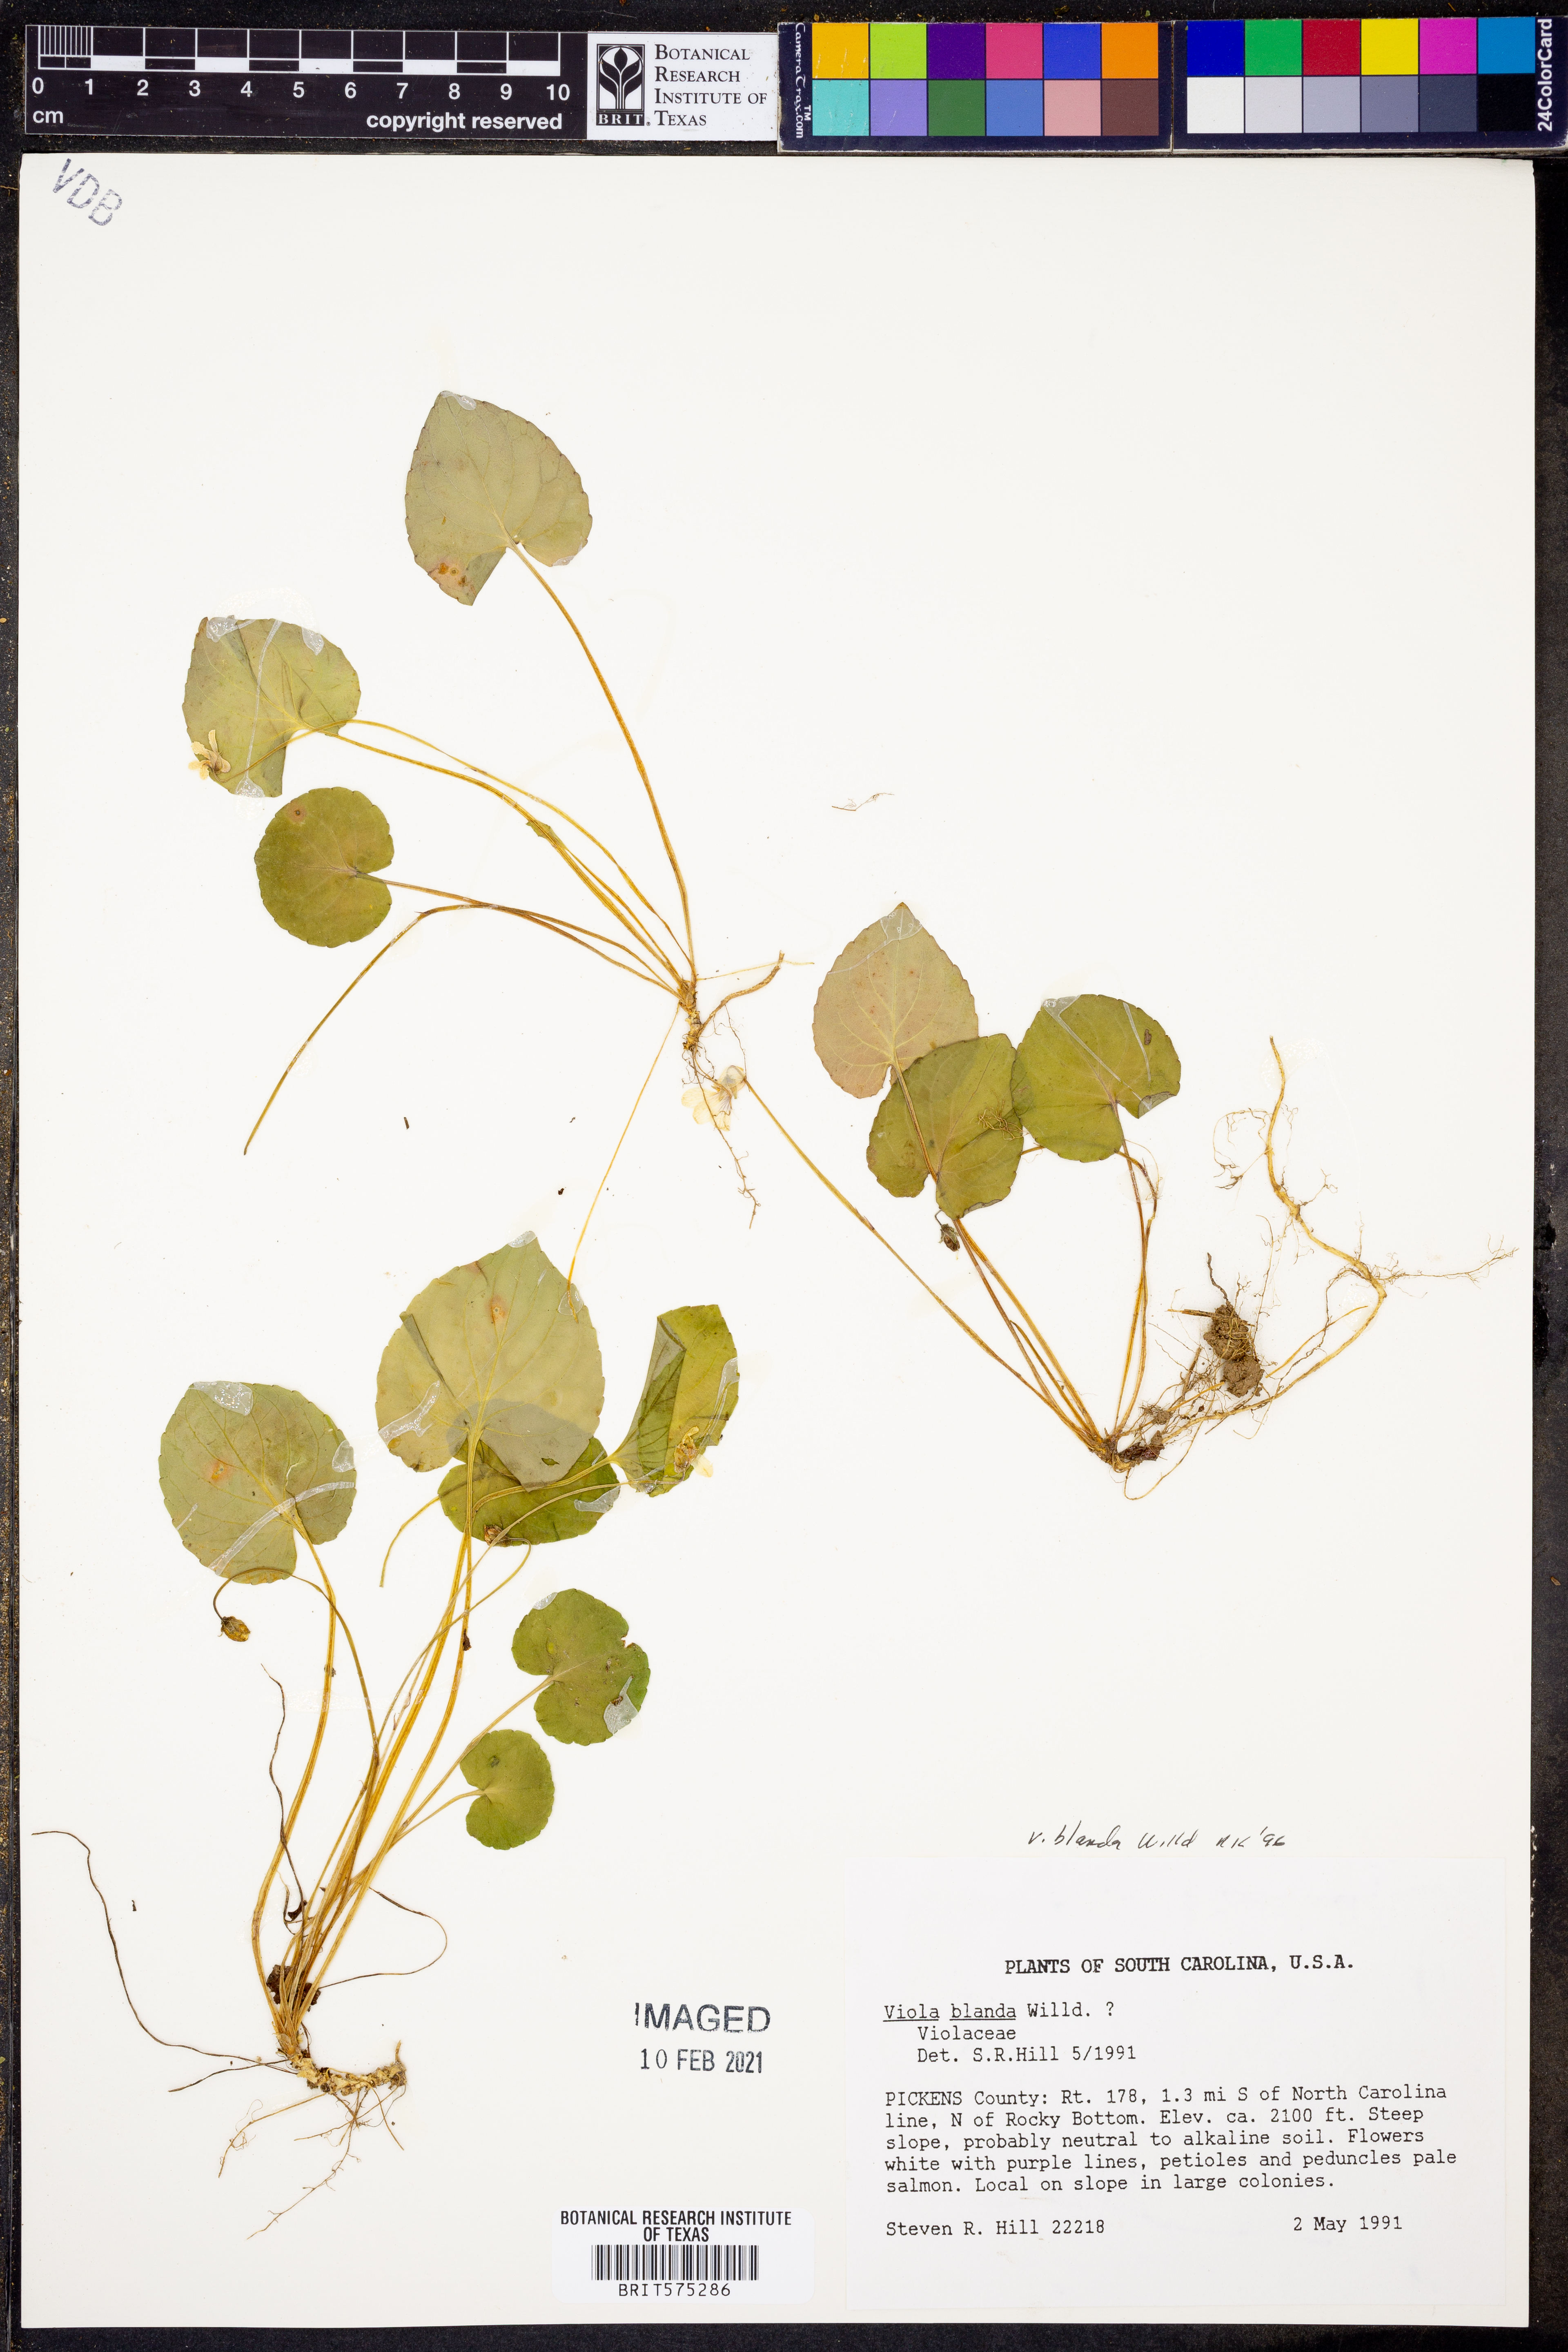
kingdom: Plantae
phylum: Tracheophyta
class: Magnoliopsida
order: Malpighiales
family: Violaceae
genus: Viola
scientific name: Viola blanda
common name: Sweet white violet
